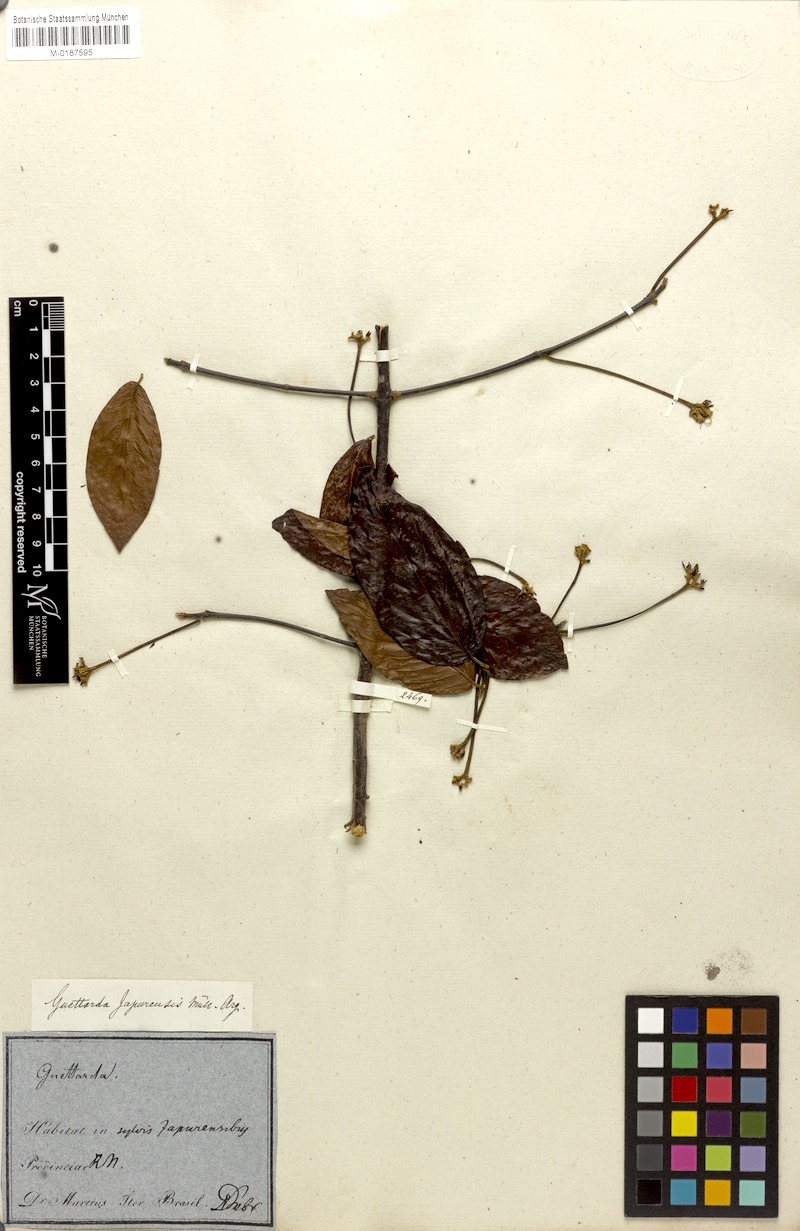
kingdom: Plantae
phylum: Tracheophyta
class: Magnoliopsida
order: Gentianales
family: Rubiaceae
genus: Guettarda
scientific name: Guettarda aromatica
